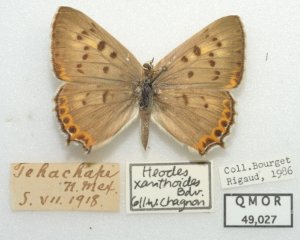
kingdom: Animalia
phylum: Arthropoda
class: Insecta
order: Lepidoptera
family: Lycaenidae
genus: Lycaena
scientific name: Lycaena xanthoides
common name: Great Copper
